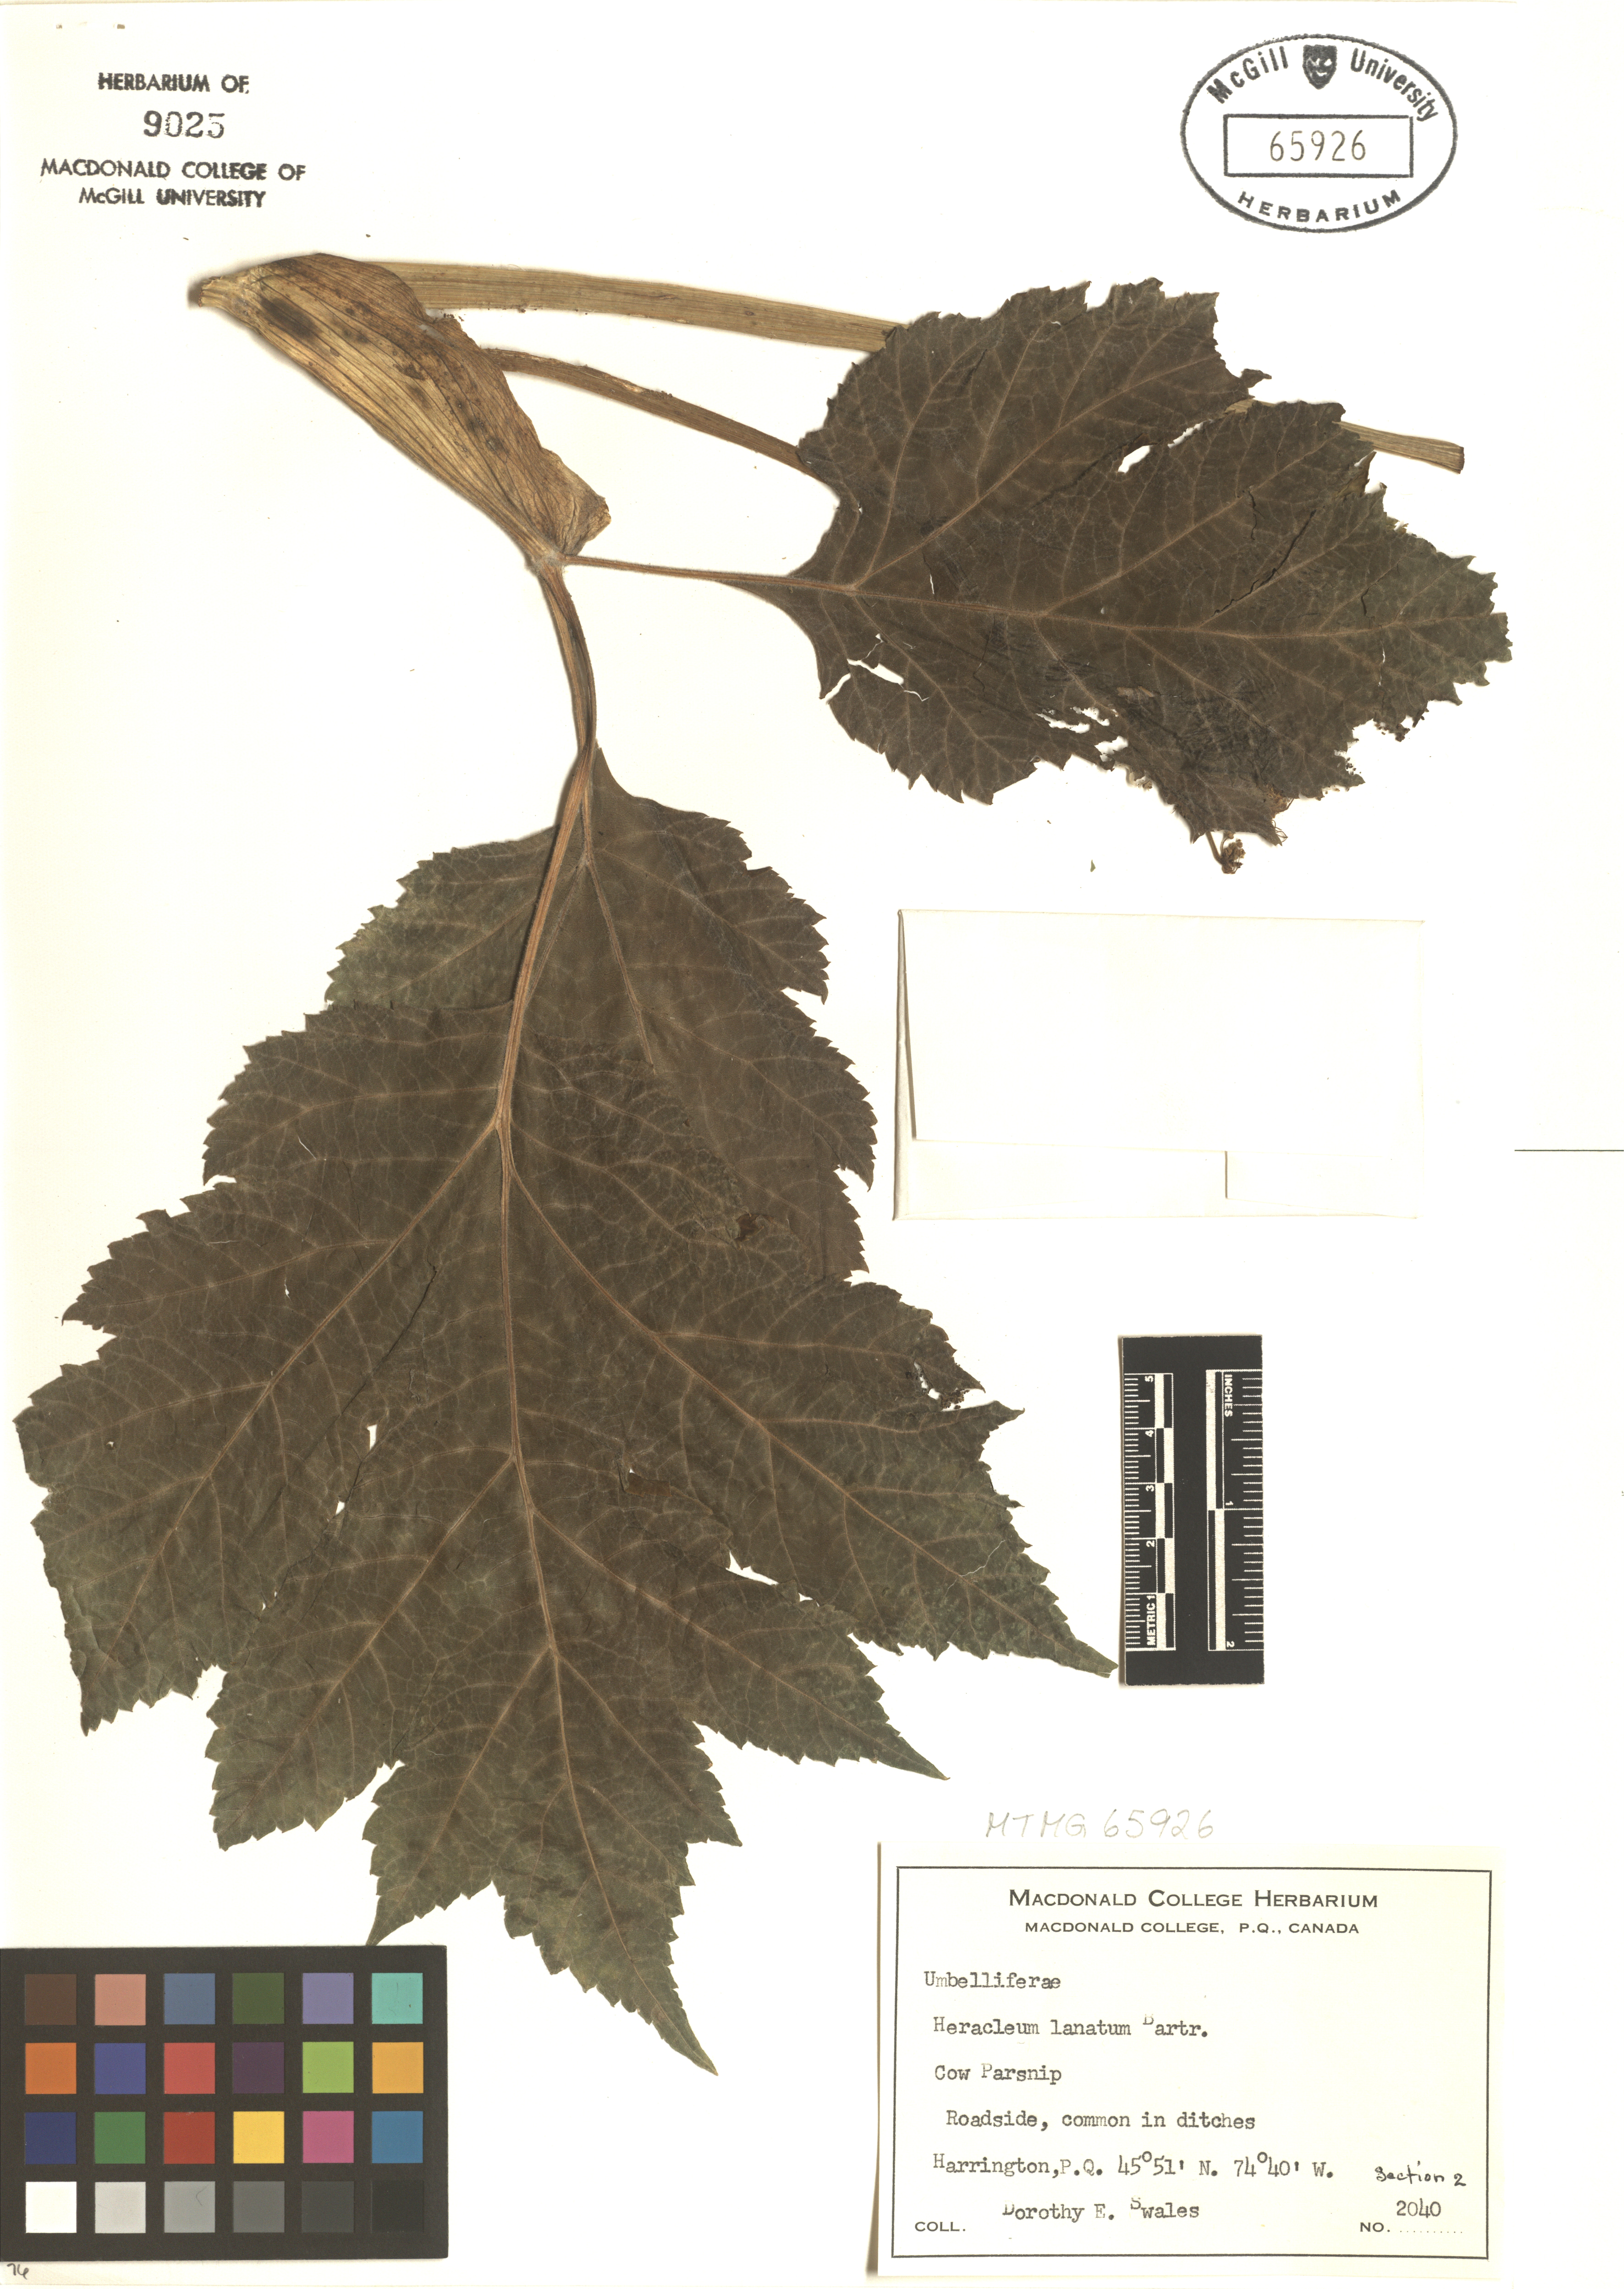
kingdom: Plantae
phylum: Tracheophyta
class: Magnoliopsida
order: Apiales
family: Apiaceae
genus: Heracleum
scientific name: Heracleum maximum
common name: American cow parsnip
